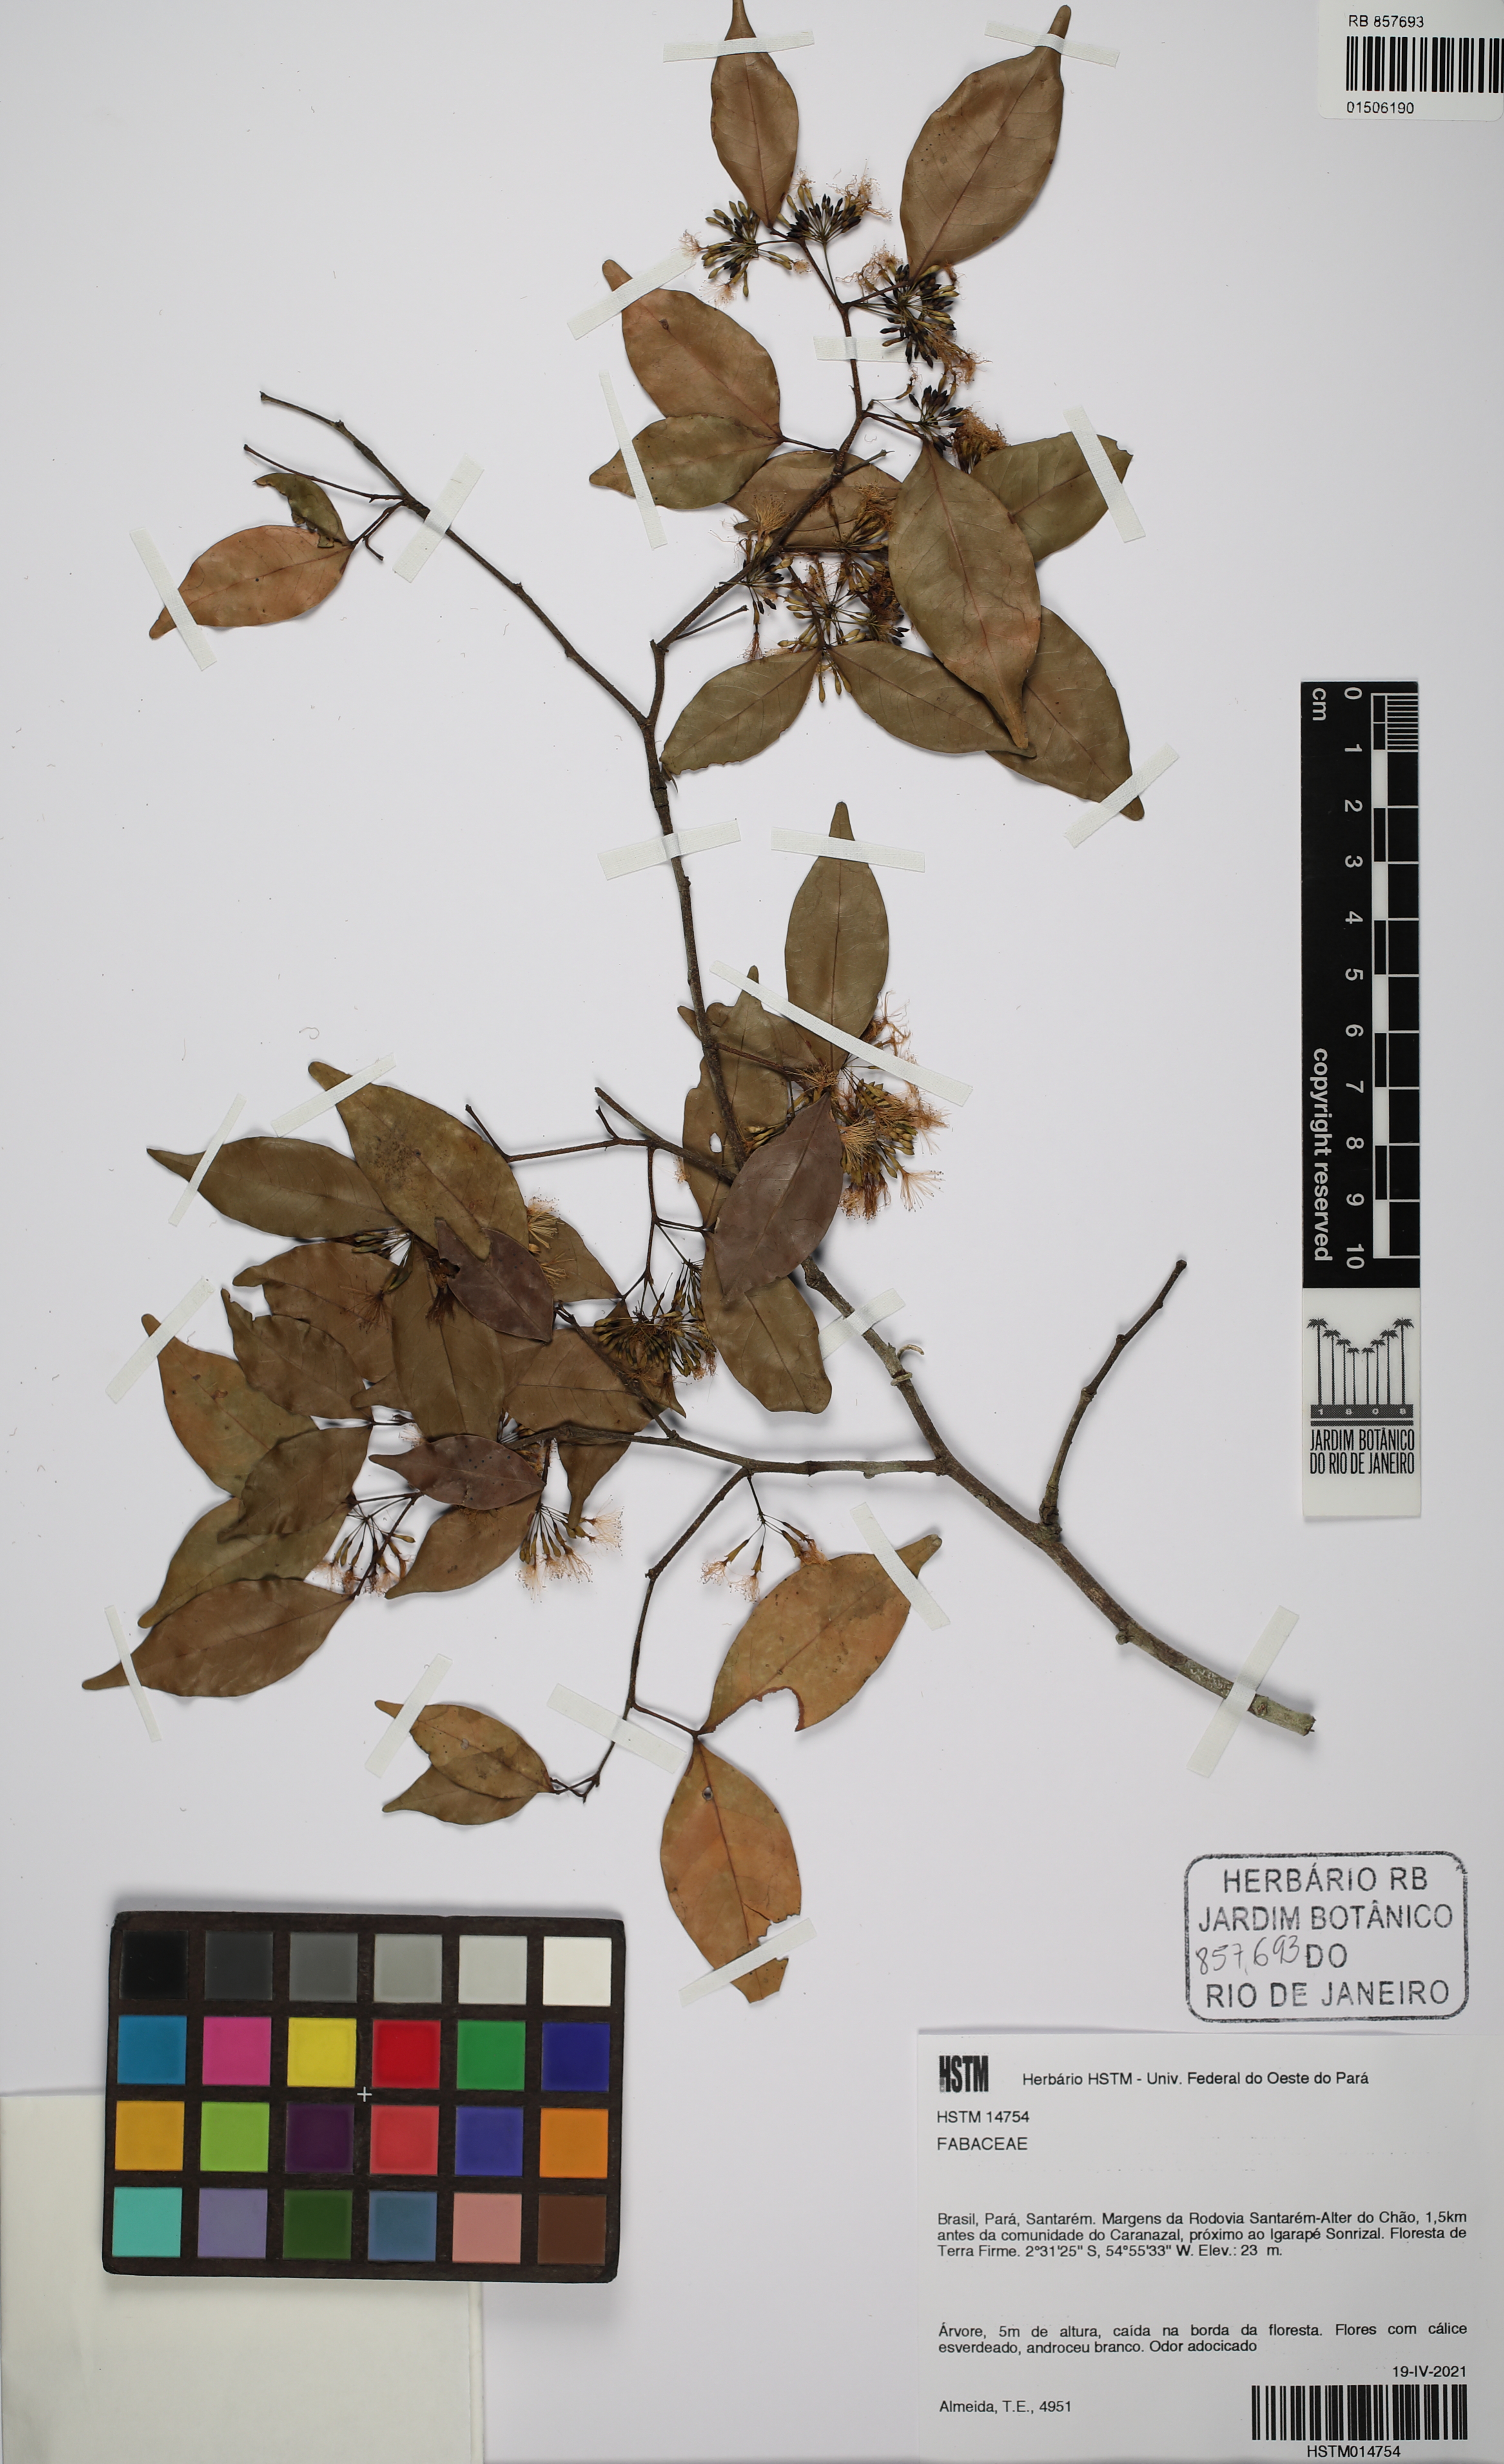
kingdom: Plantae
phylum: Tracheophyta
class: Magnoliopsida
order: Fabales
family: Fabaceae
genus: Inga
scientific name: Inga
